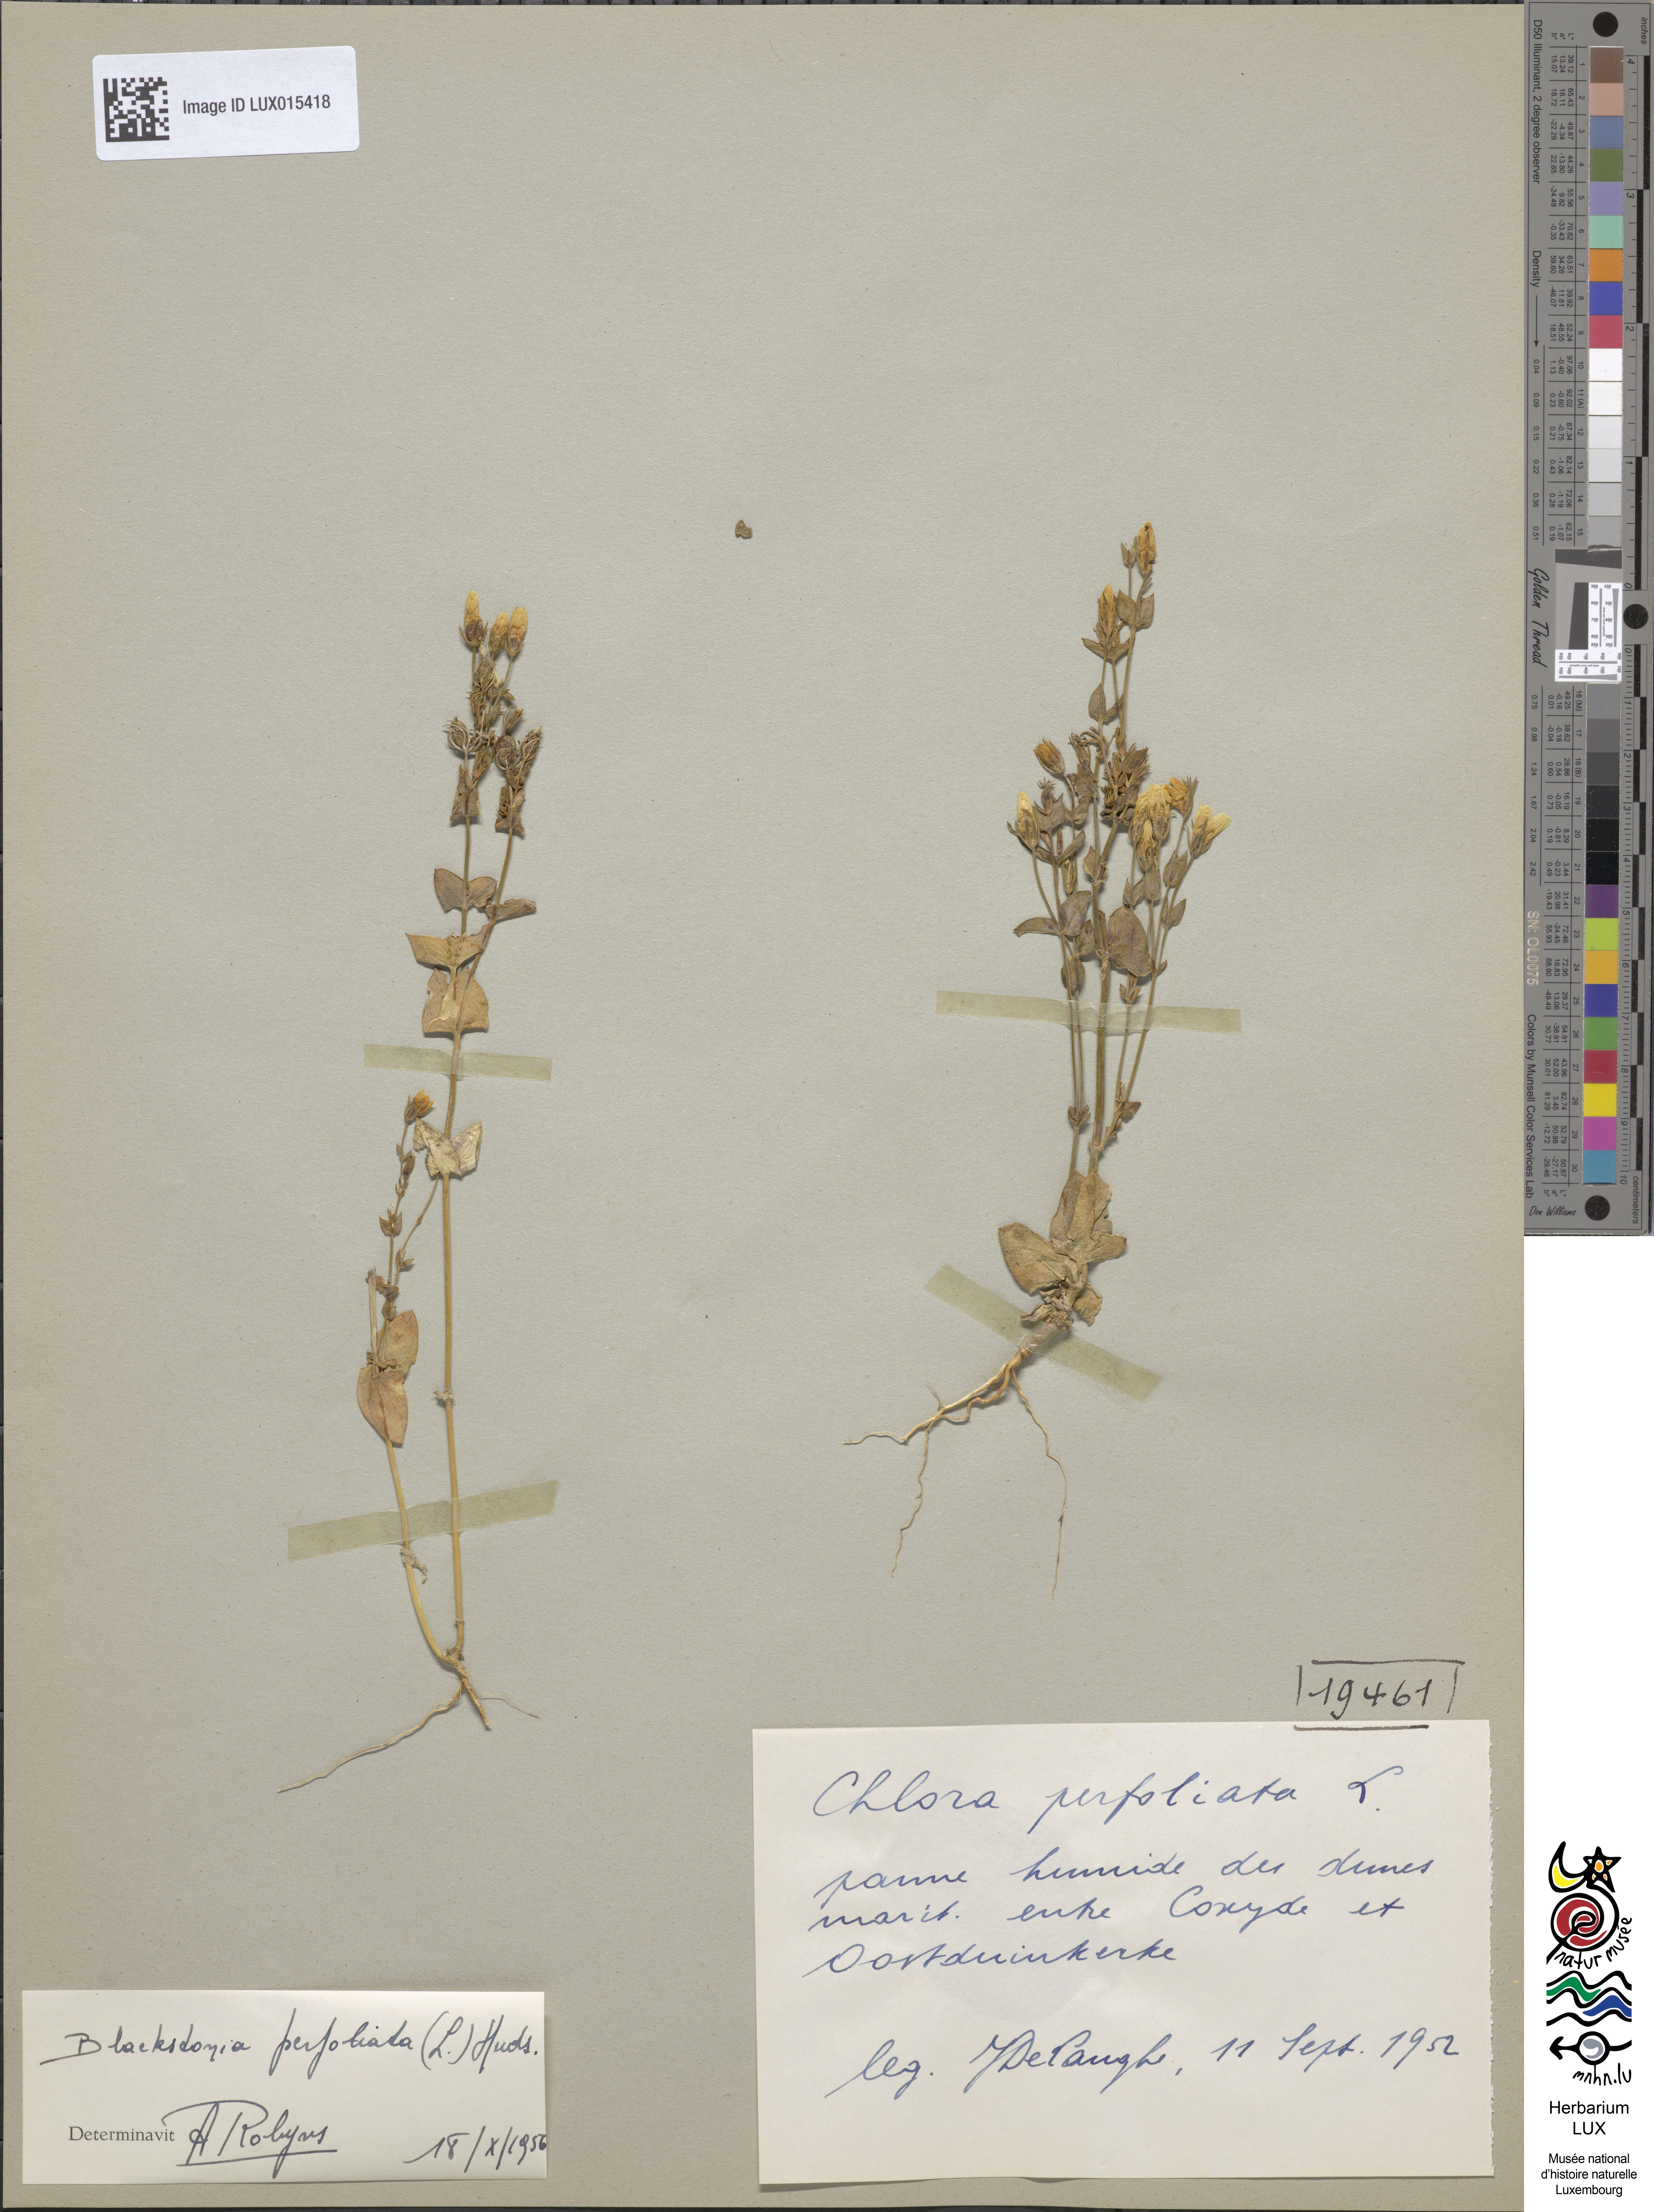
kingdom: Plantae
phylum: Tracheophyta
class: Magnoliopsida
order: Gentianales
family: Gentianaceae
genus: Blackstonia
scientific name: Blackstonia perfoliata
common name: Yellow-wort
